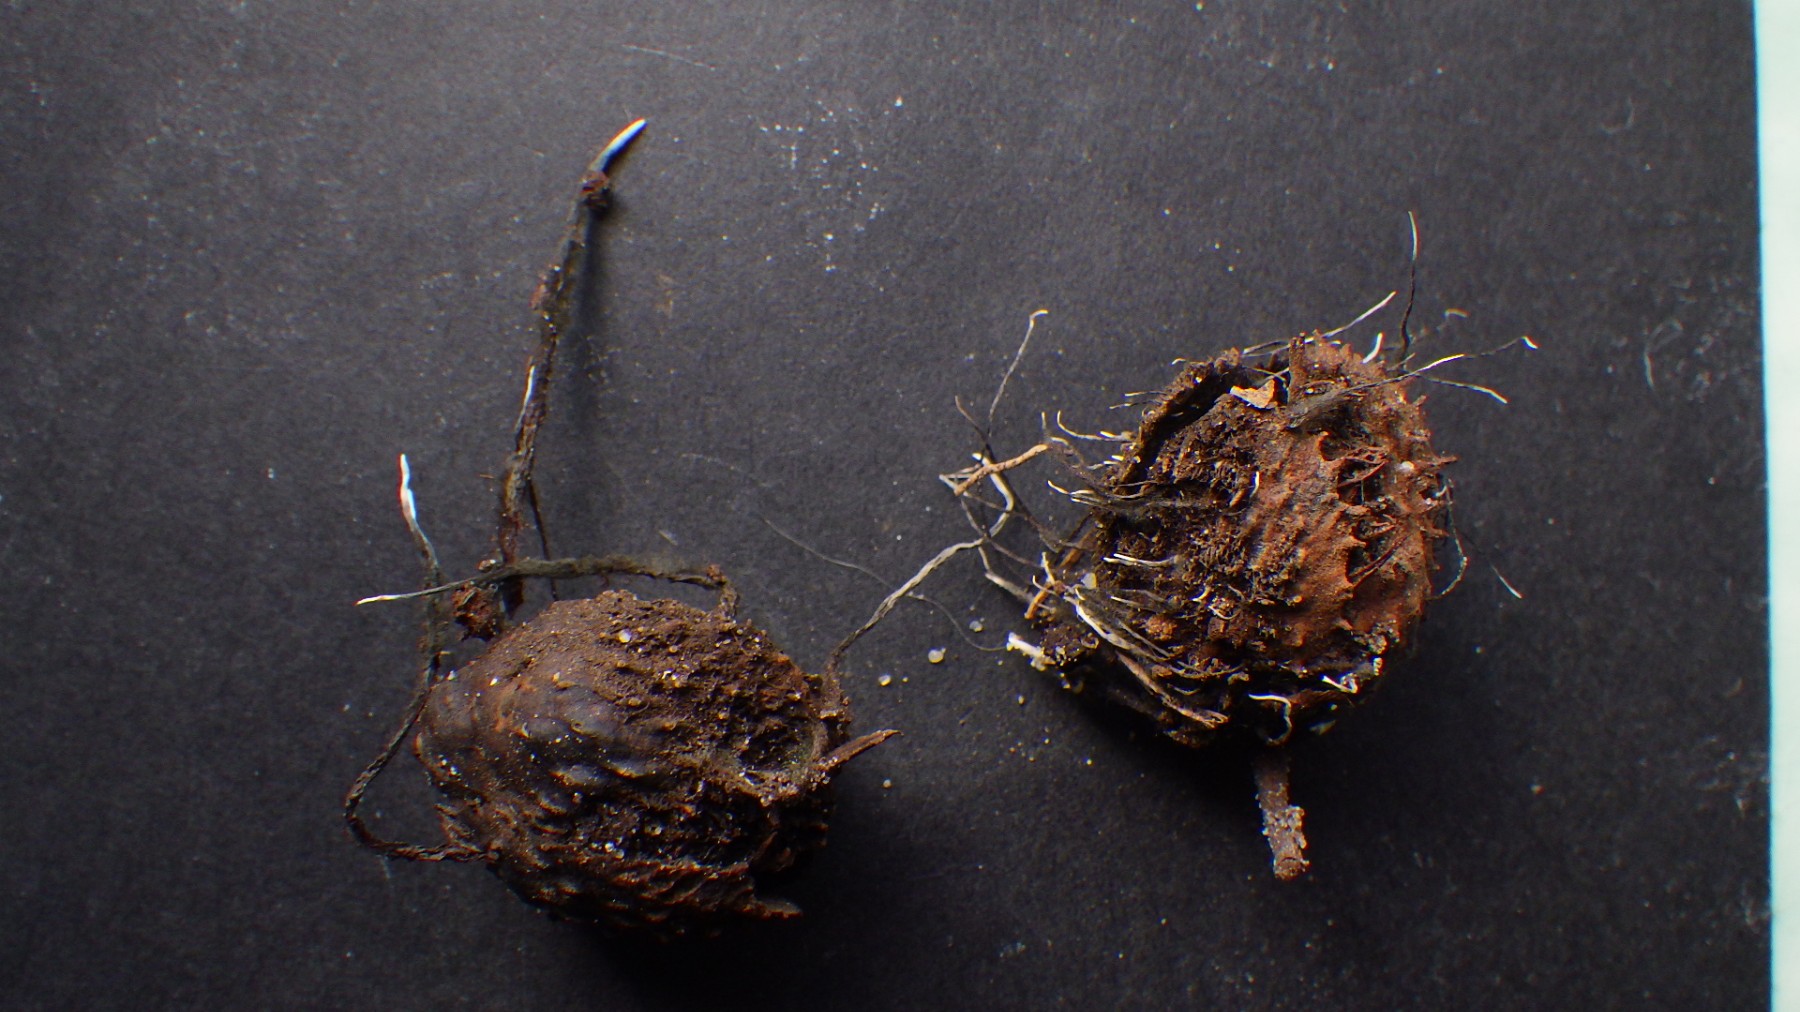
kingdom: Fungi
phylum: Ascomycota
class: Sordariomycetes
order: Xylariales
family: Xylariaceae
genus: Xylaria
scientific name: Xylaria carpophila
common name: bogskål-stødsvamp
